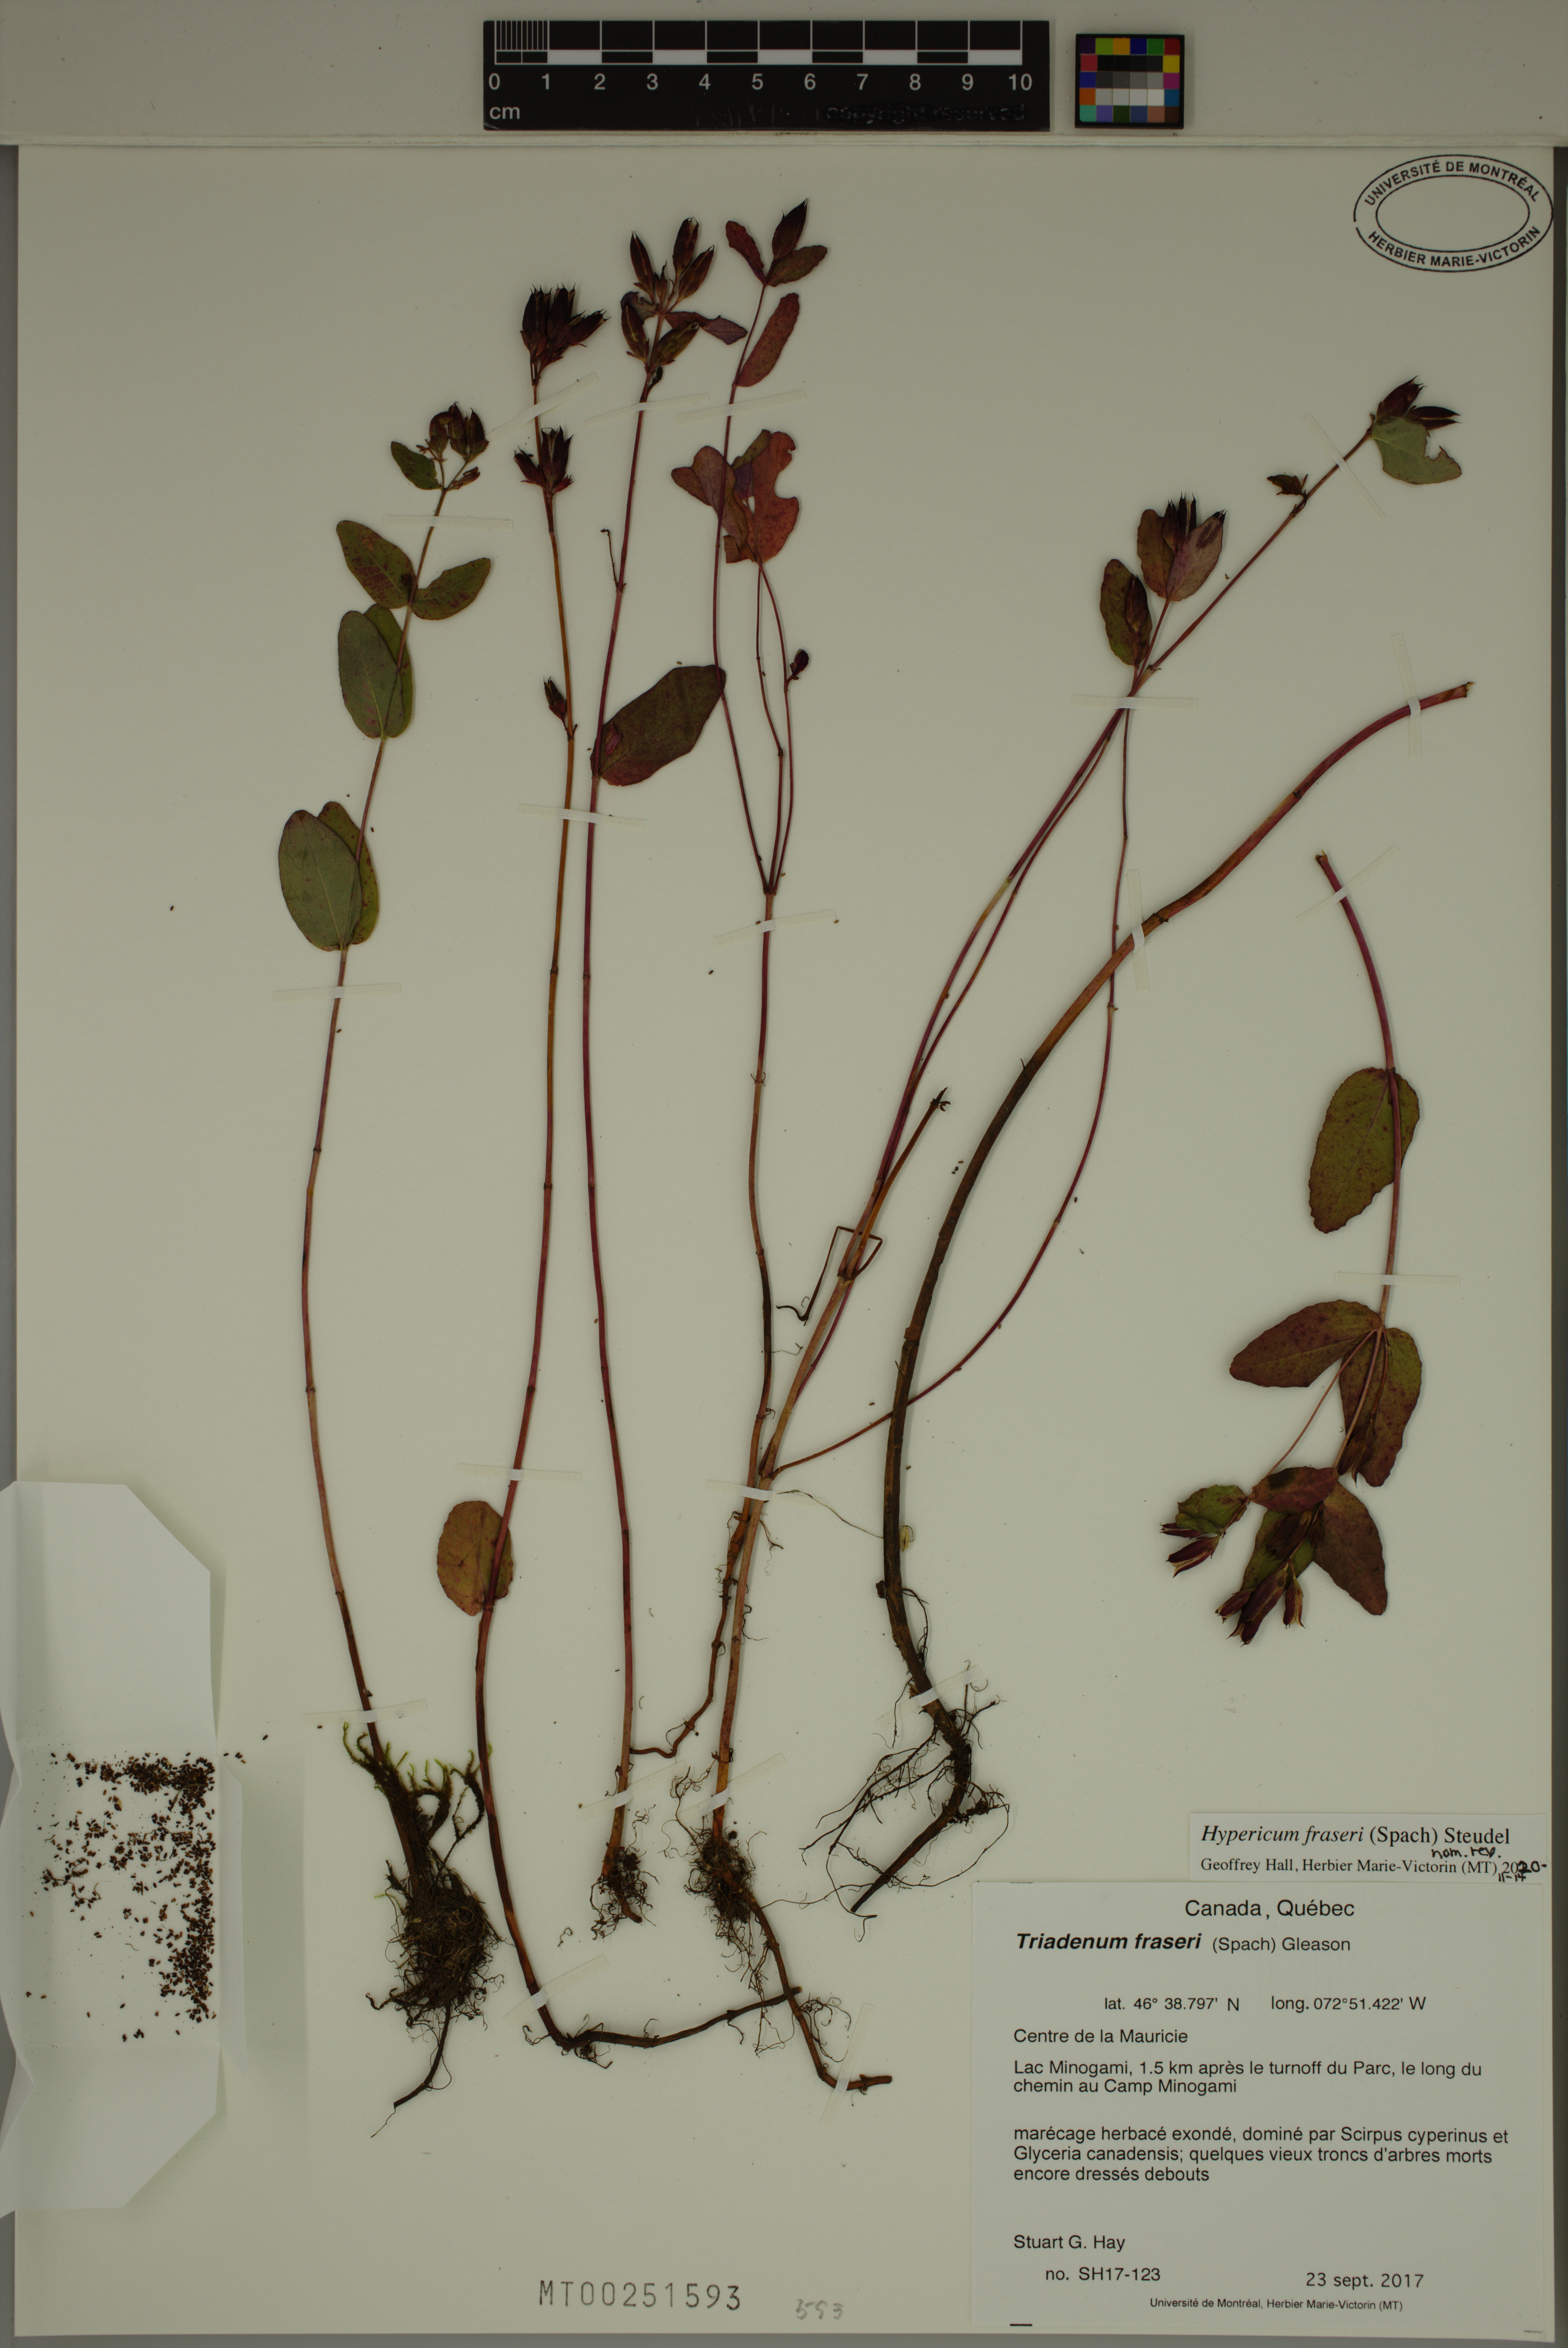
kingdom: Plantae
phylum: Tracheophyta
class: Magnoliopsida
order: Malpighiales
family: Hypericaceae
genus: Triadenum
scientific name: Triadenum fraseri
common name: Fraser's marsh st. johnswort
